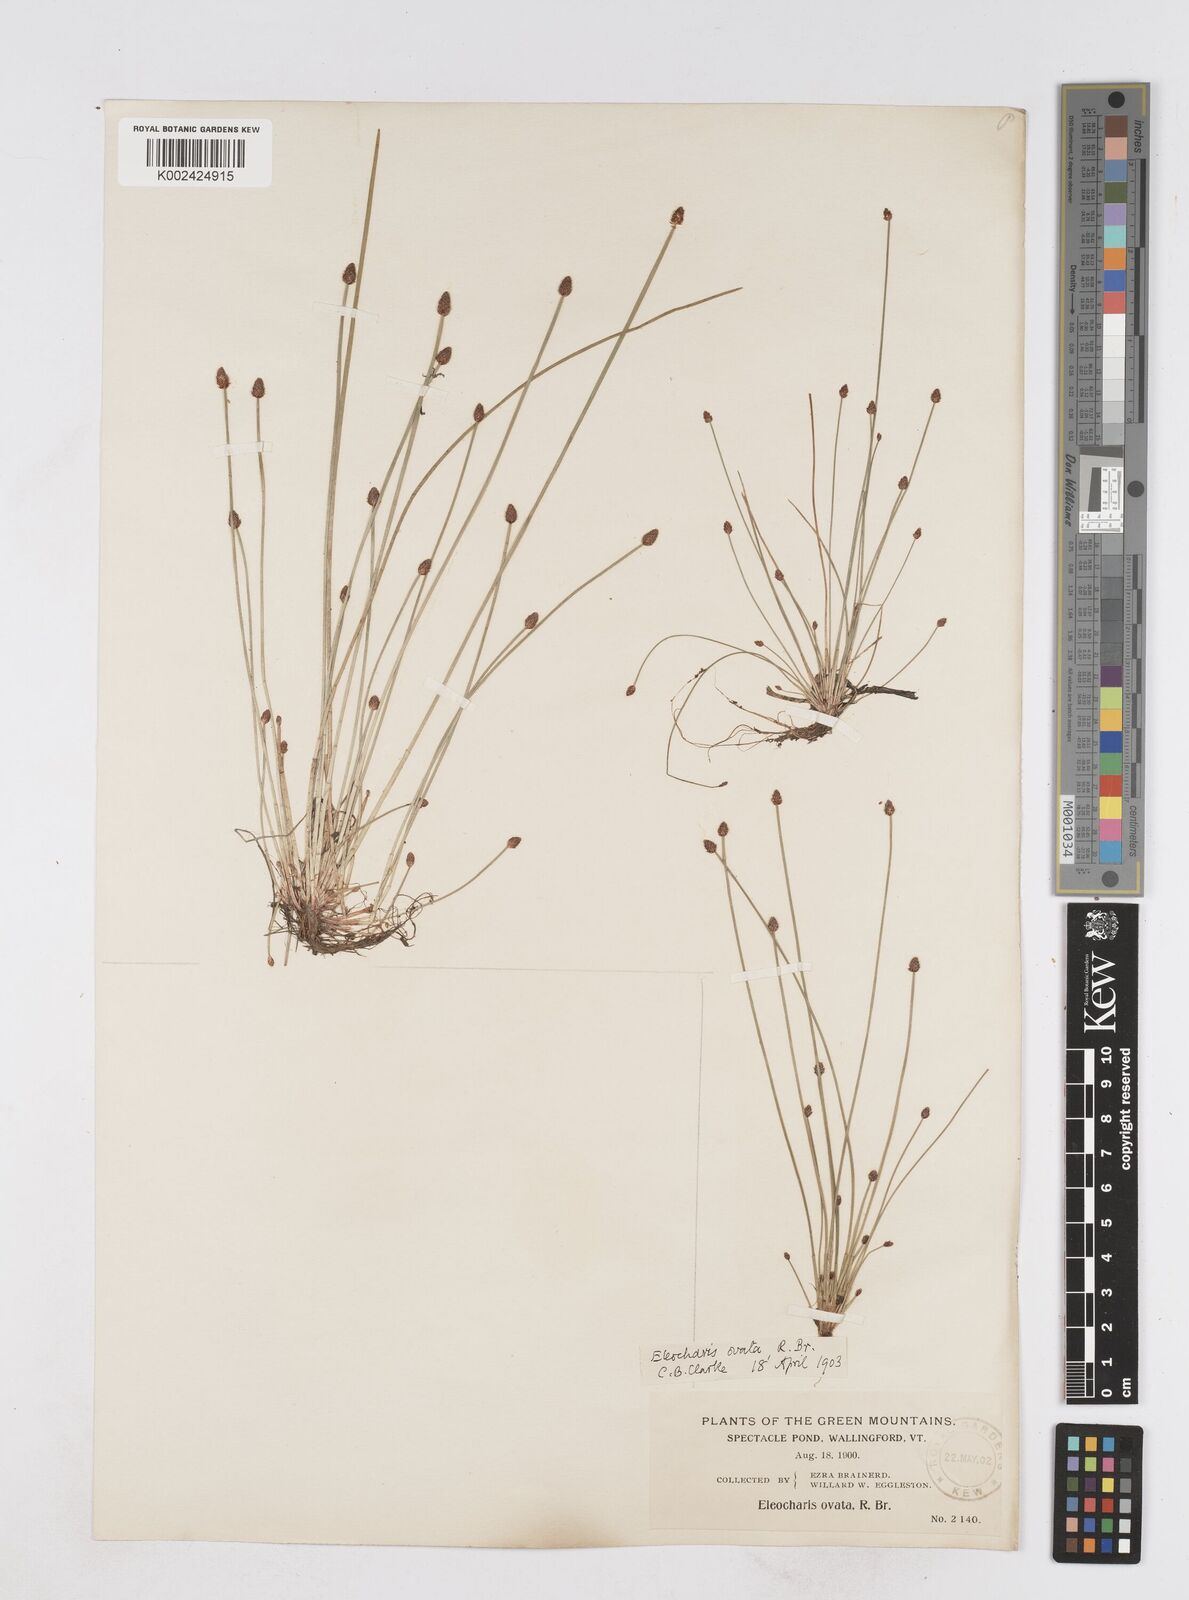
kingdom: Plantae
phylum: Tracheophyta
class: Liliopsida
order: Poales
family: Cyperaceae
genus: Eleocharis
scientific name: Eleocharis ovata
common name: Oval spike-rush
